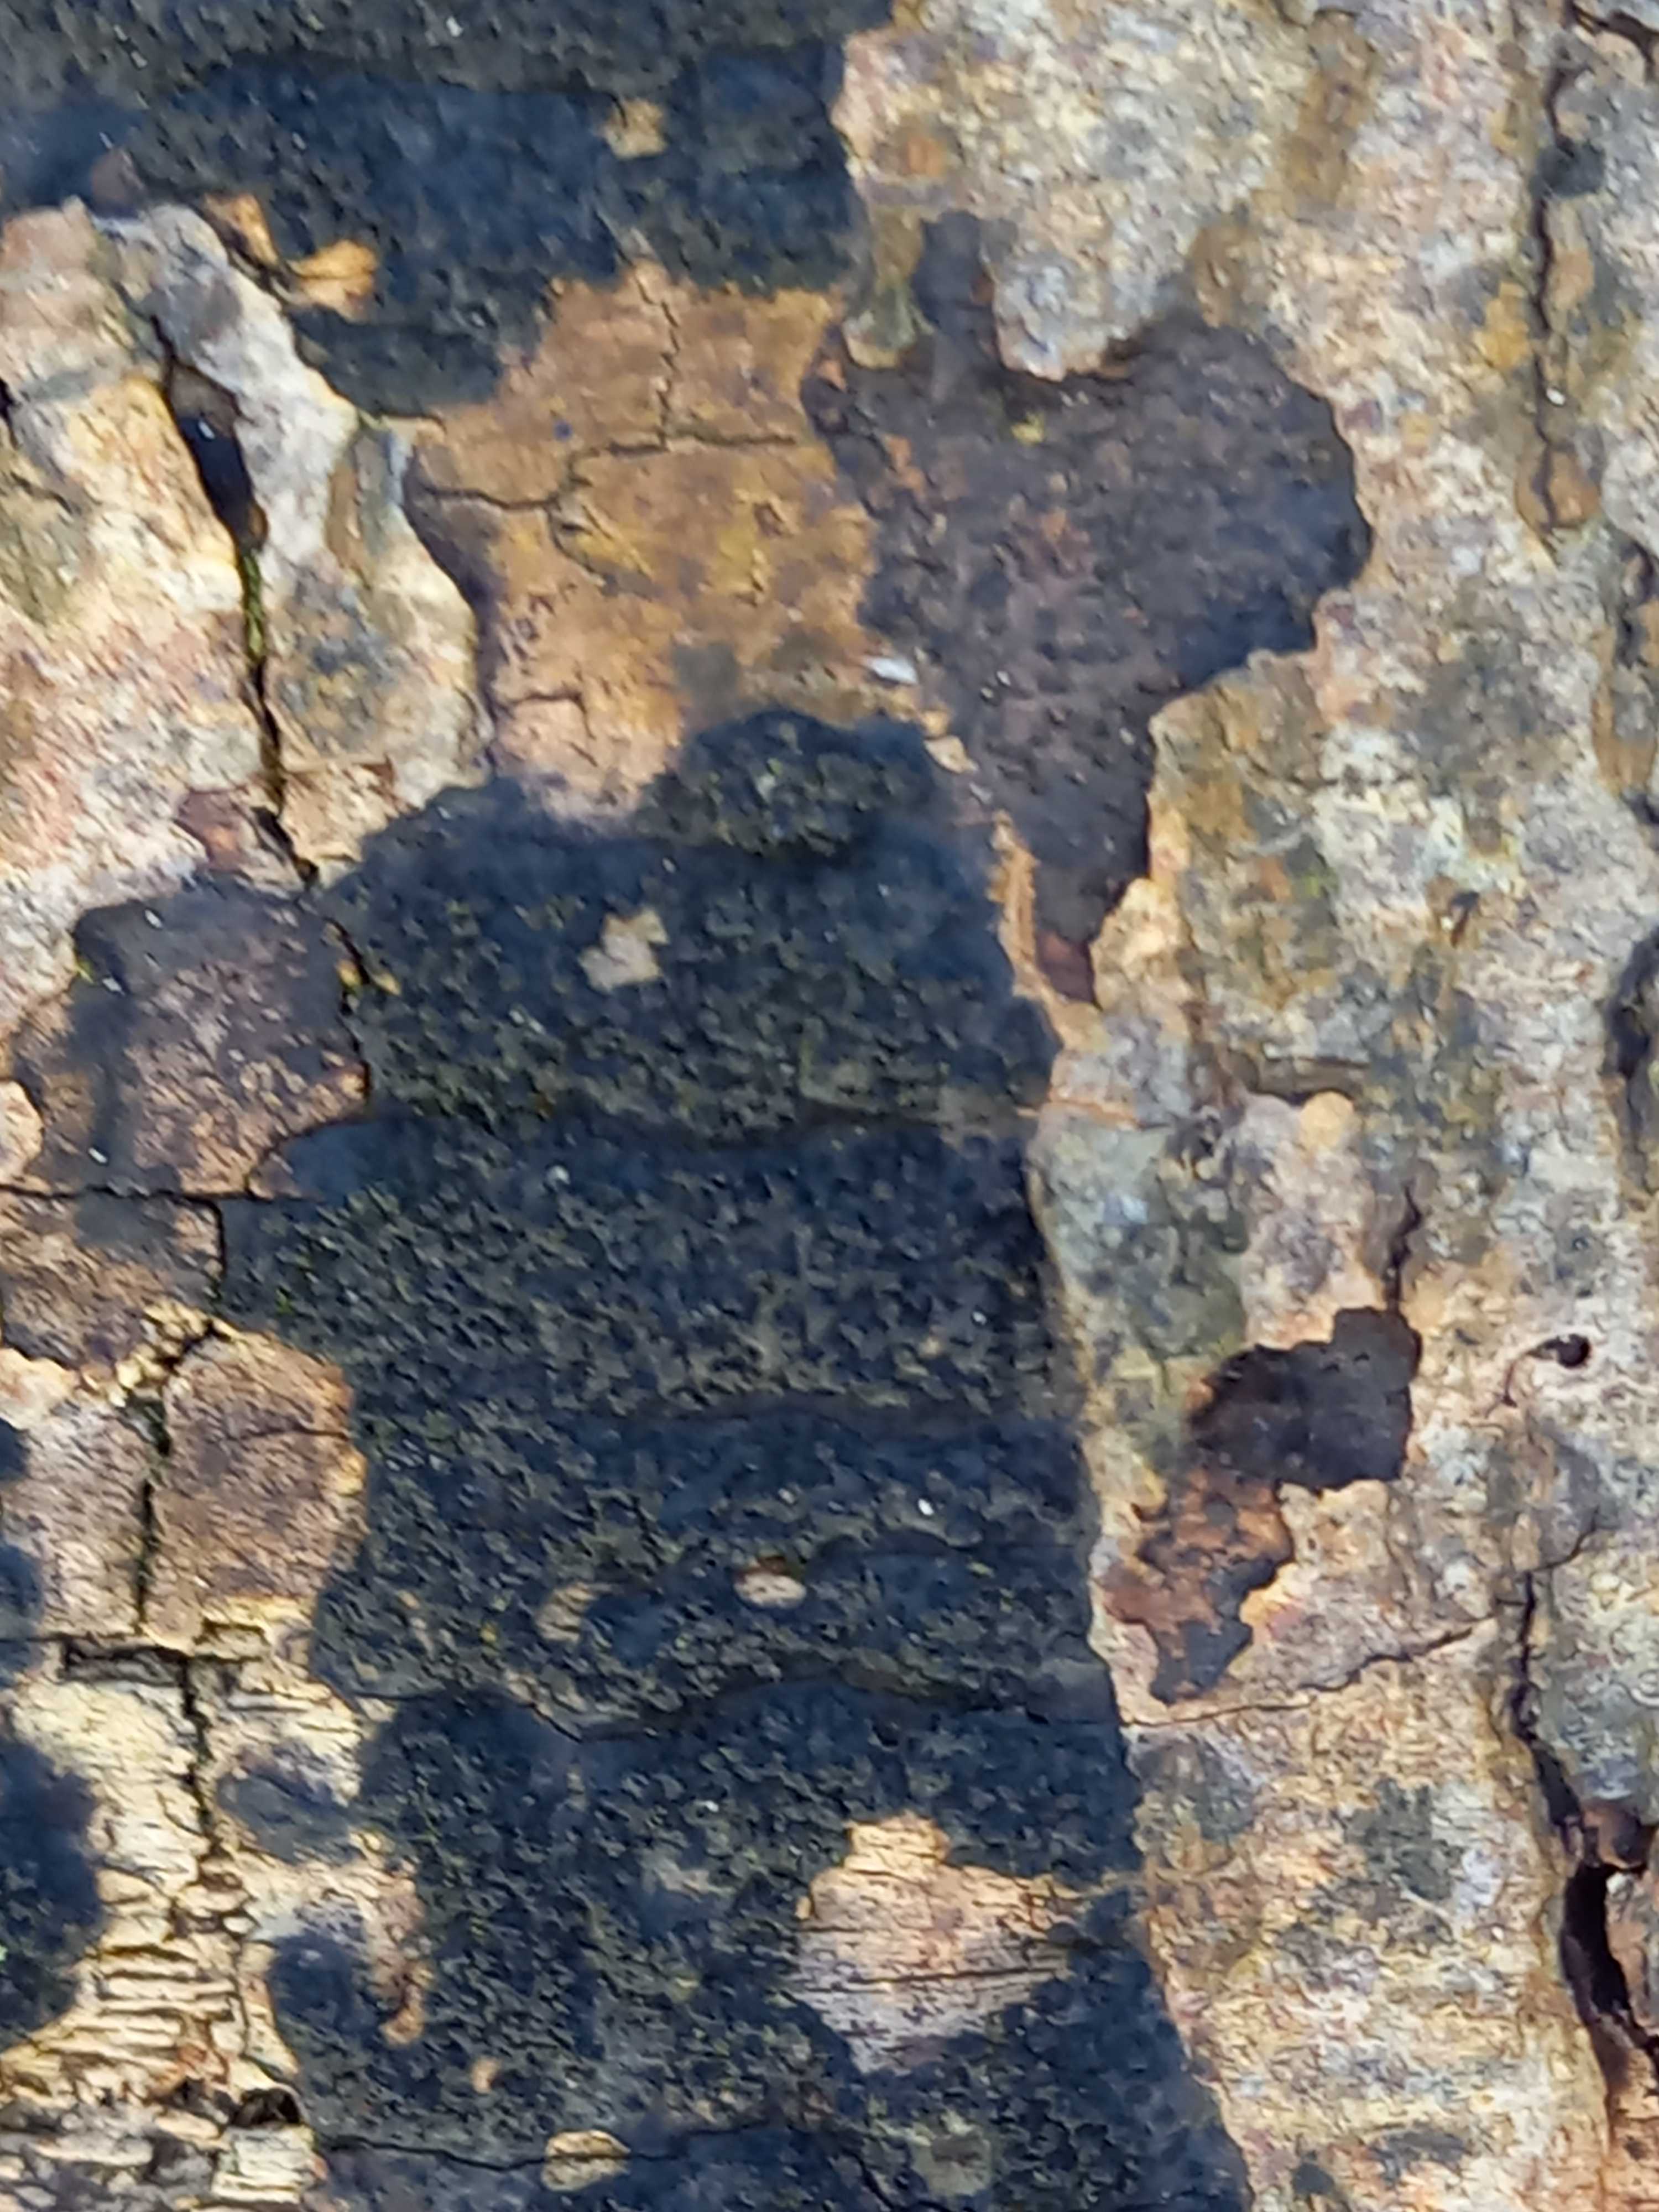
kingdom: Fungi
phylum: Ascomycota
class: Sordariomycetes
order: Xylariales
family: Diatrypaceae
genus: Eutypa
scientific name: Eutypa spinosa
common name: grov kulskorpe
